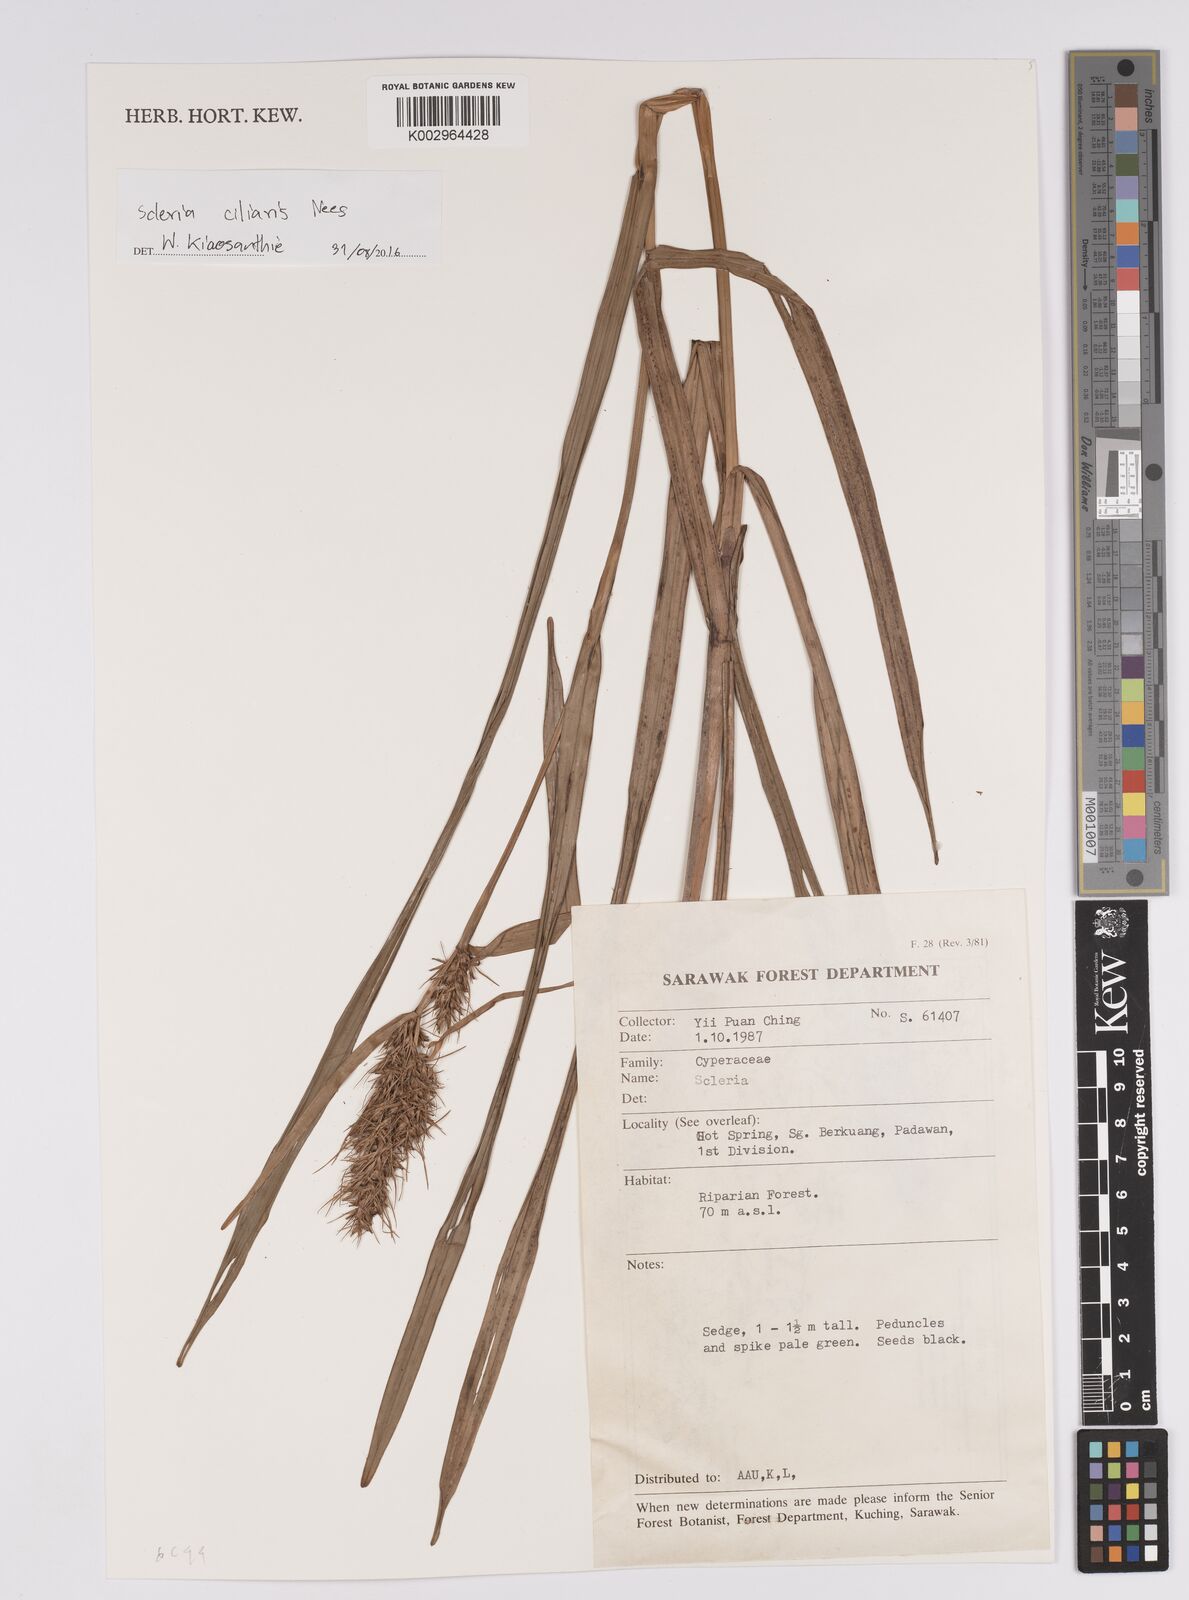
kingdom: Plantae
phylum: Tracheophyta
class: Liliopsida
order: Poales
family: Cyperaceae
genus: Scleria
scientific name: Scleria ciliaris
